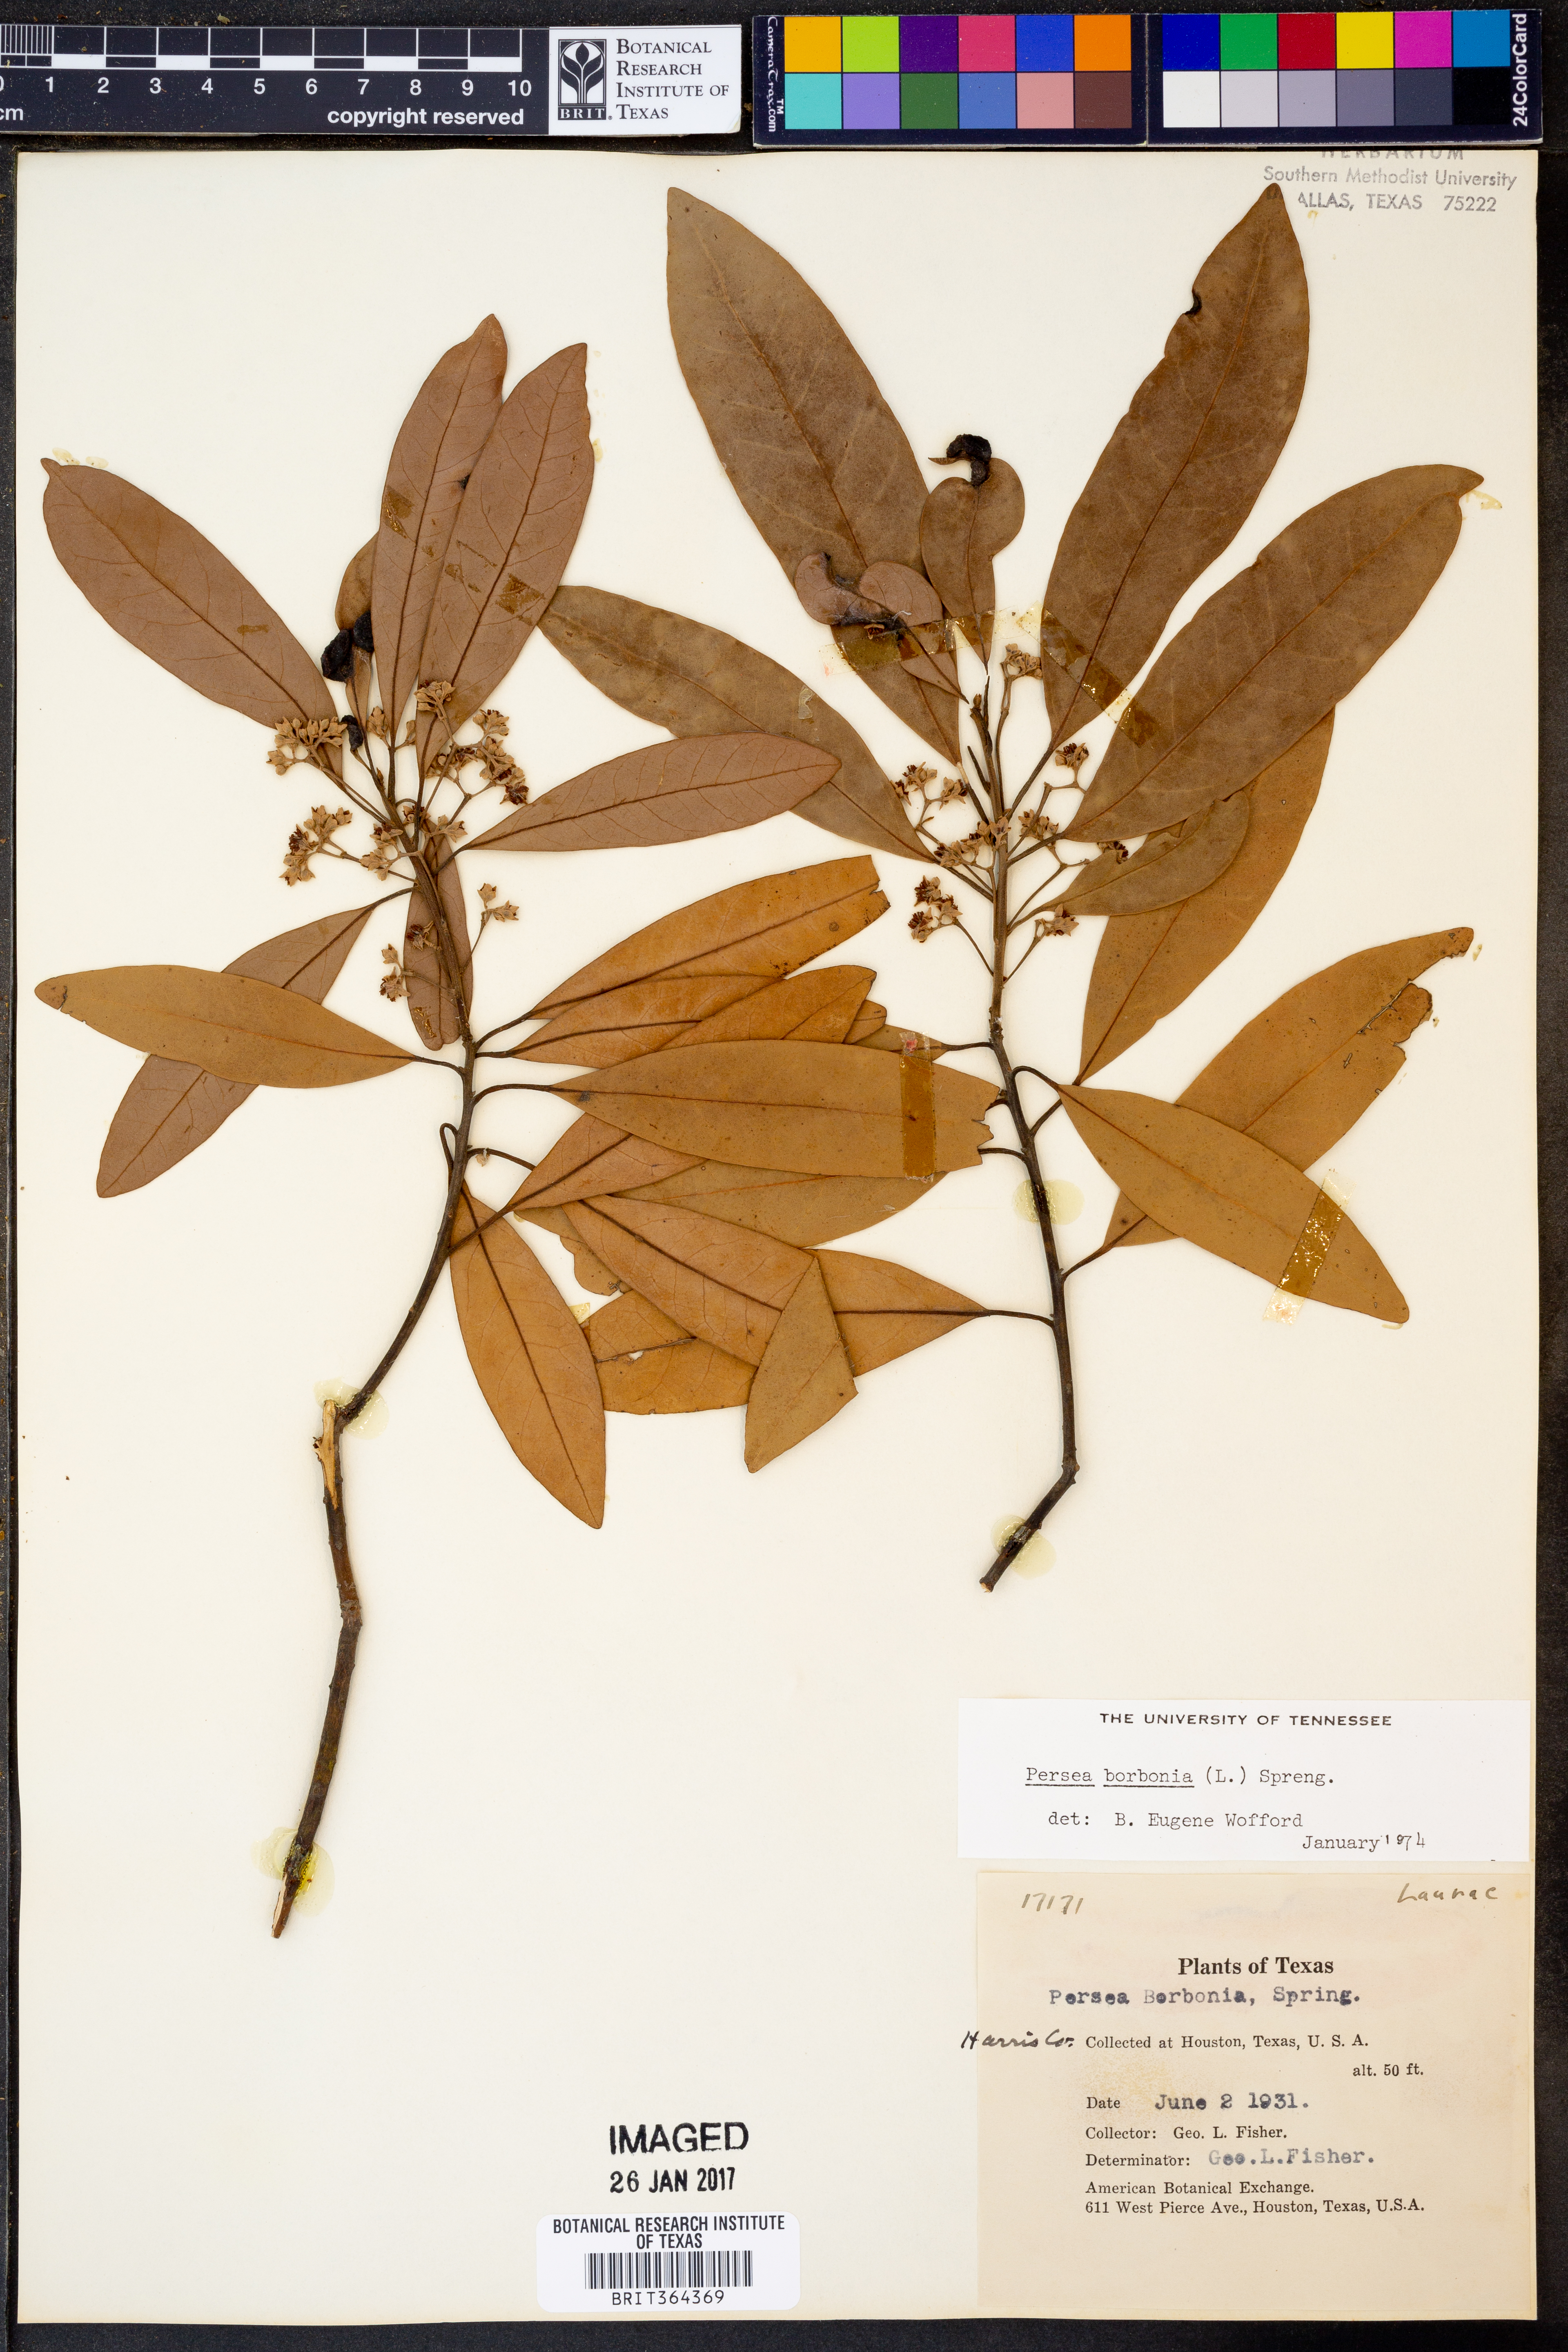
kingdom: Plantae
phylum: Tracheophyta
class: Magnoliopsida
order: Laurales
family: Lauraceae
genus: Persea
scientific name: Persea borbonia
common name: Redbay
